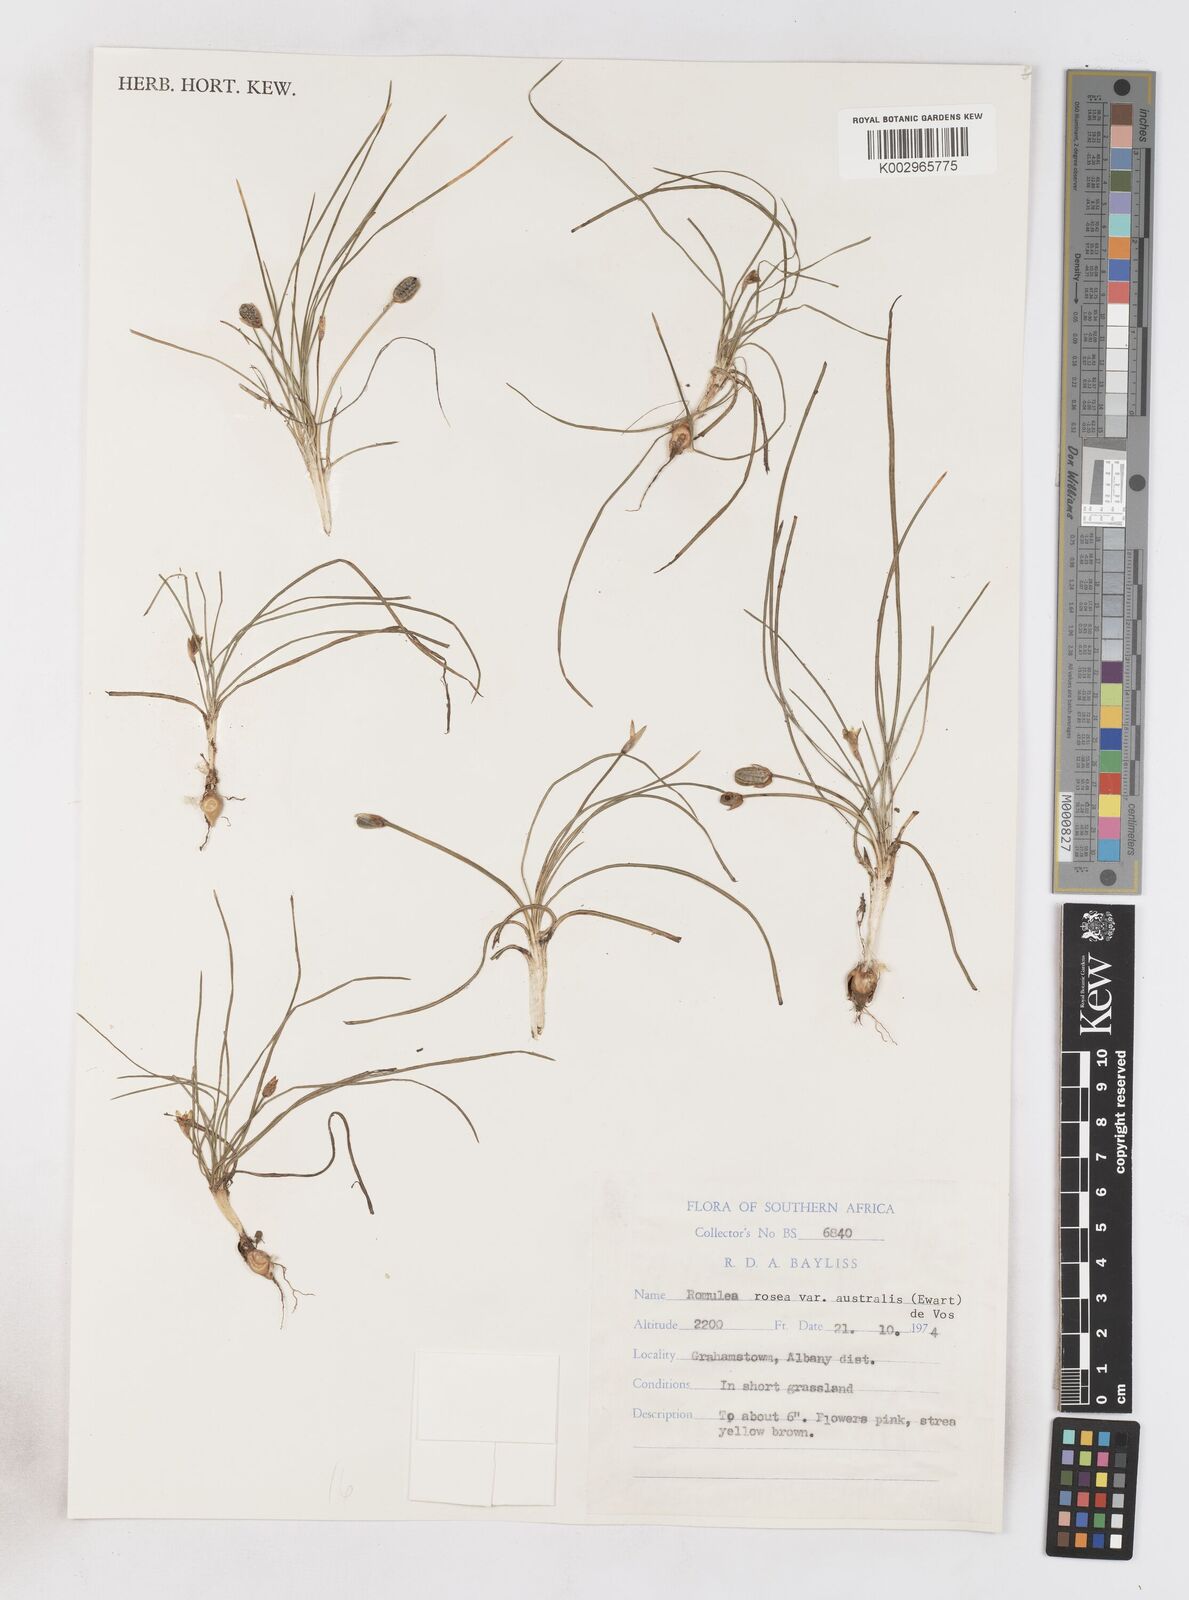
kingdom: Plantae
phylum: Tracheophyta
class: Liliopsida
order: Asparagales
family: Iridaceae
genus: Romulea
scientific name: Romulea rosea
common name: Oniongrass
